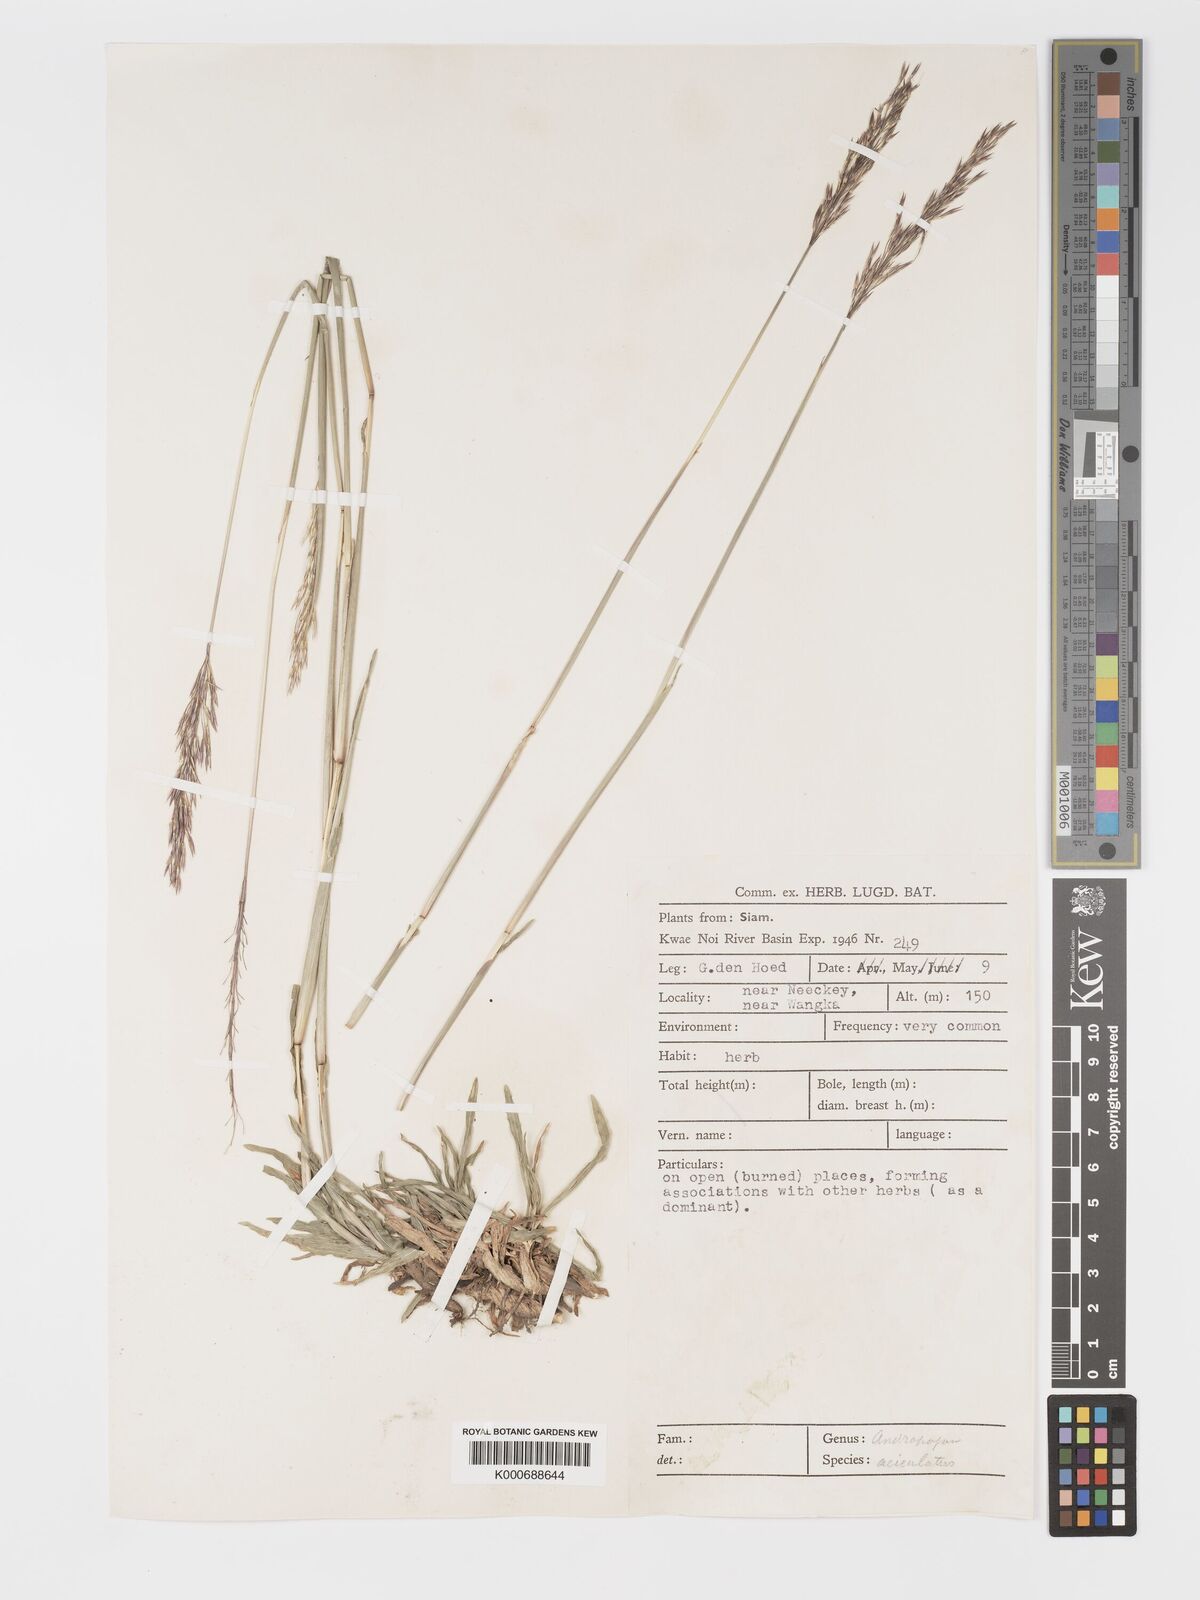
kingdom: Plantae
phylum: Tracheophyta
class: Liliopsida
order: Poales
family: Poaceae
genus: Chrysopogon
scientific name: Chrysopogon aciculatus
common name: Pilipiliula
